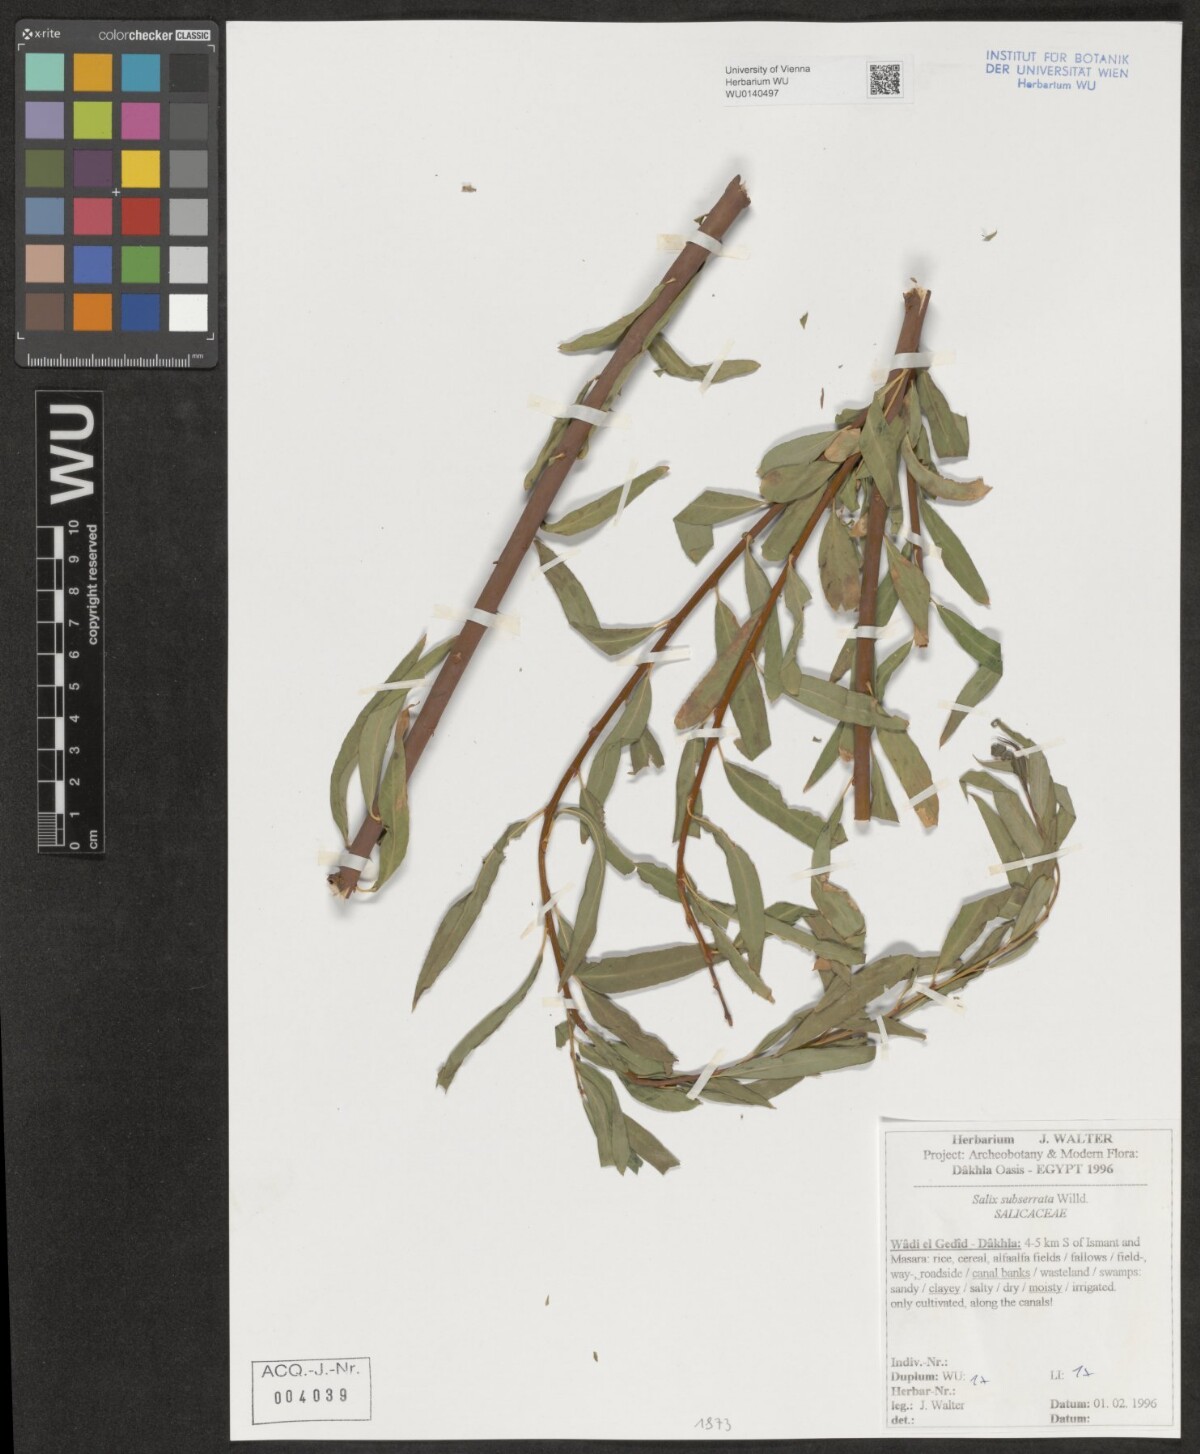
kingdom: Plantae
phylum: Tracheophyta
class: Magnoliopsida
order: Malpighiales
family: Salicaceae
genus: Salix
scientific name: Salix mucronata
